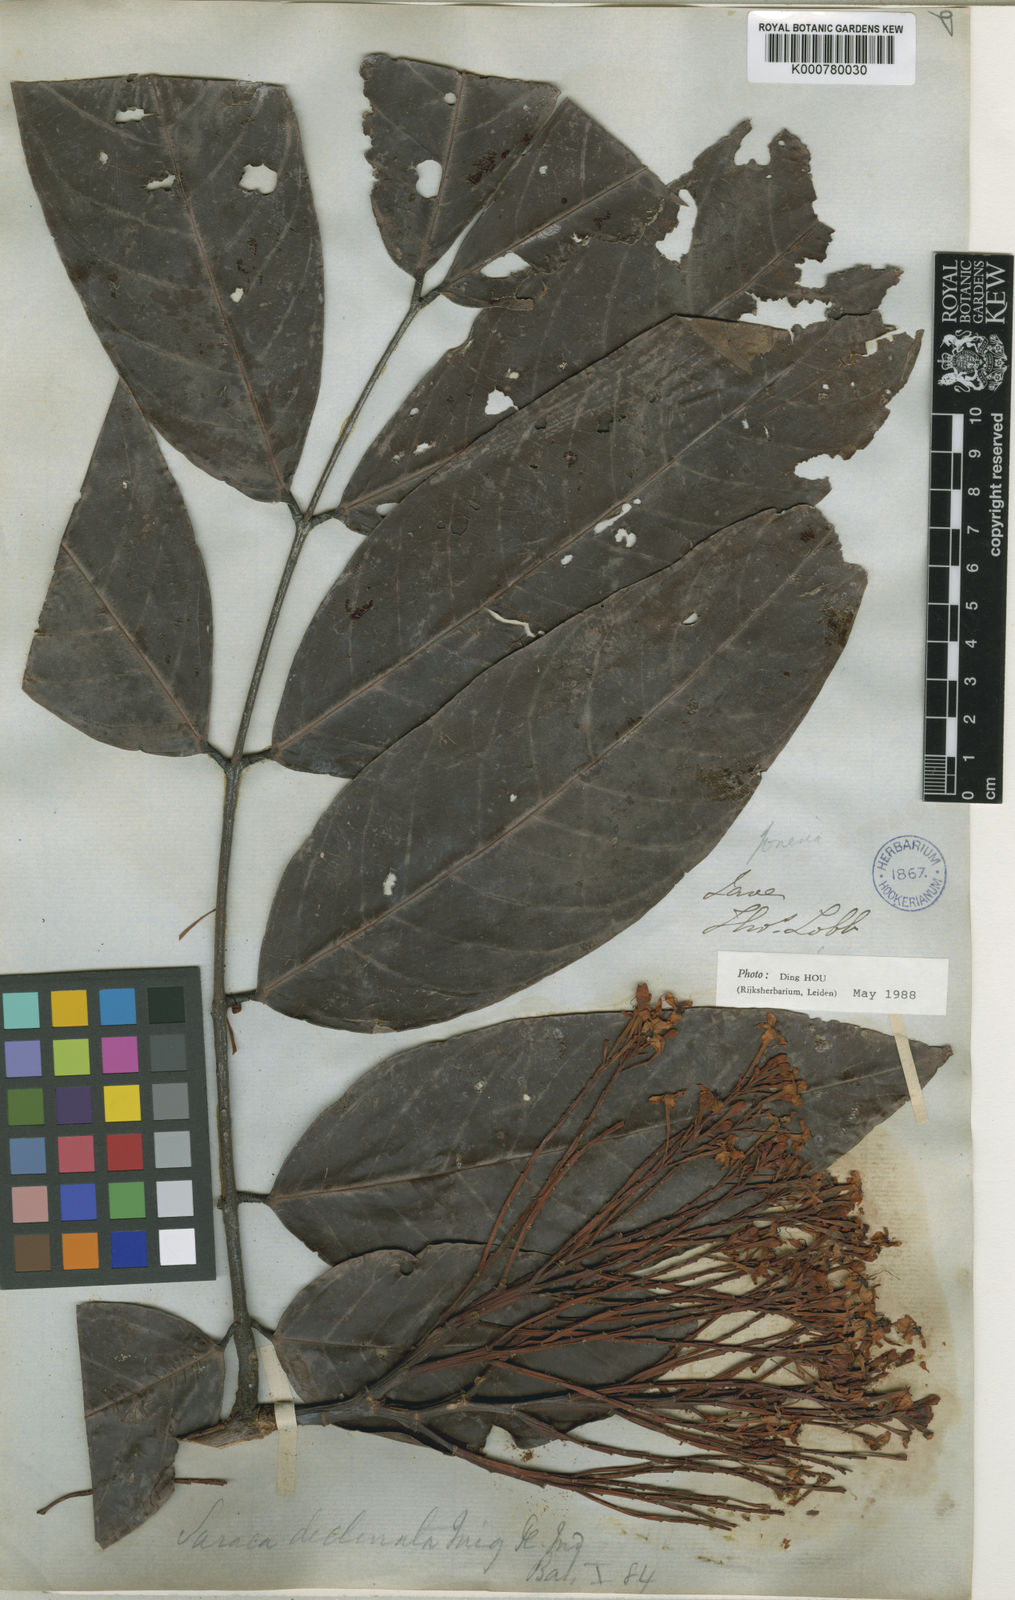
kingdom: Plantae
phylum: Tracheophyta
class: Magnoliopsida
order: Fabales
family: Fabaceae
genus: Saraca
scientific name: Saraca
